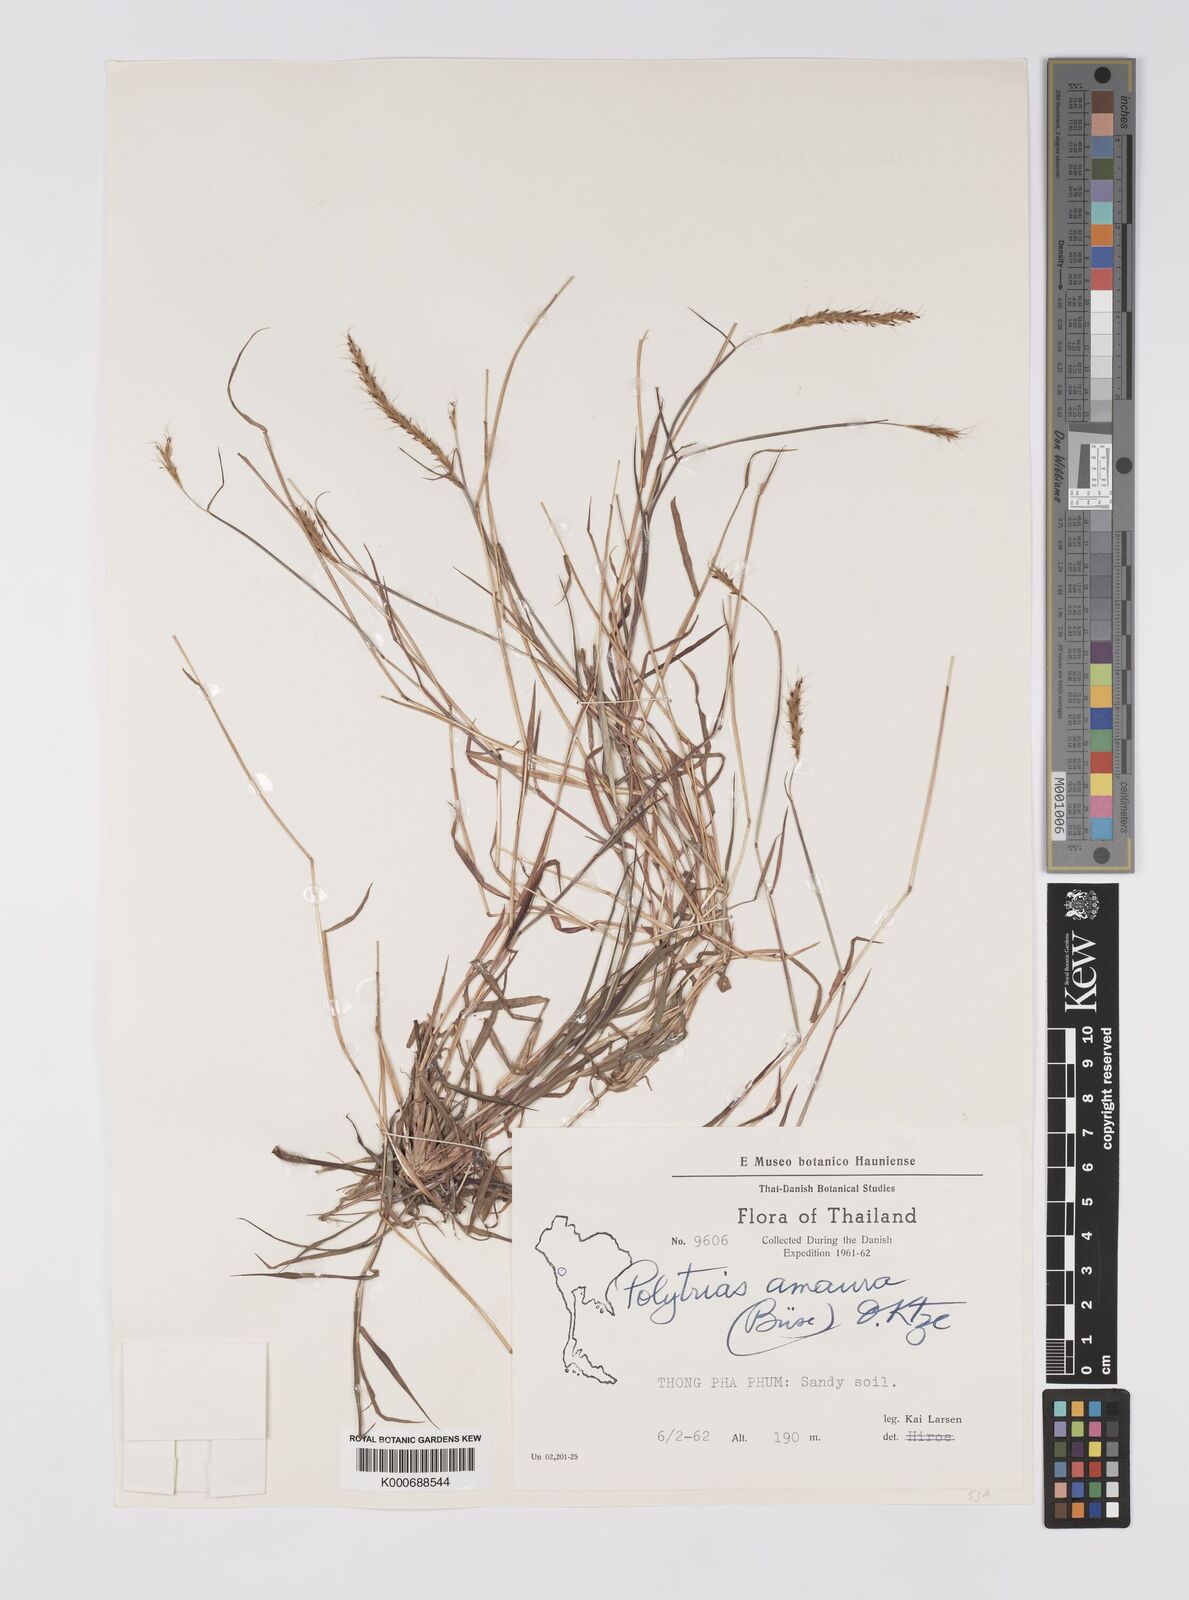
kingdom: Plantae
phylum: Tracheophyta
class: Liliopsida
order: Poales
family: Poaceae
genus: Polytrias
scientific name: Polytrias indica
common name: Indian murainagrass
